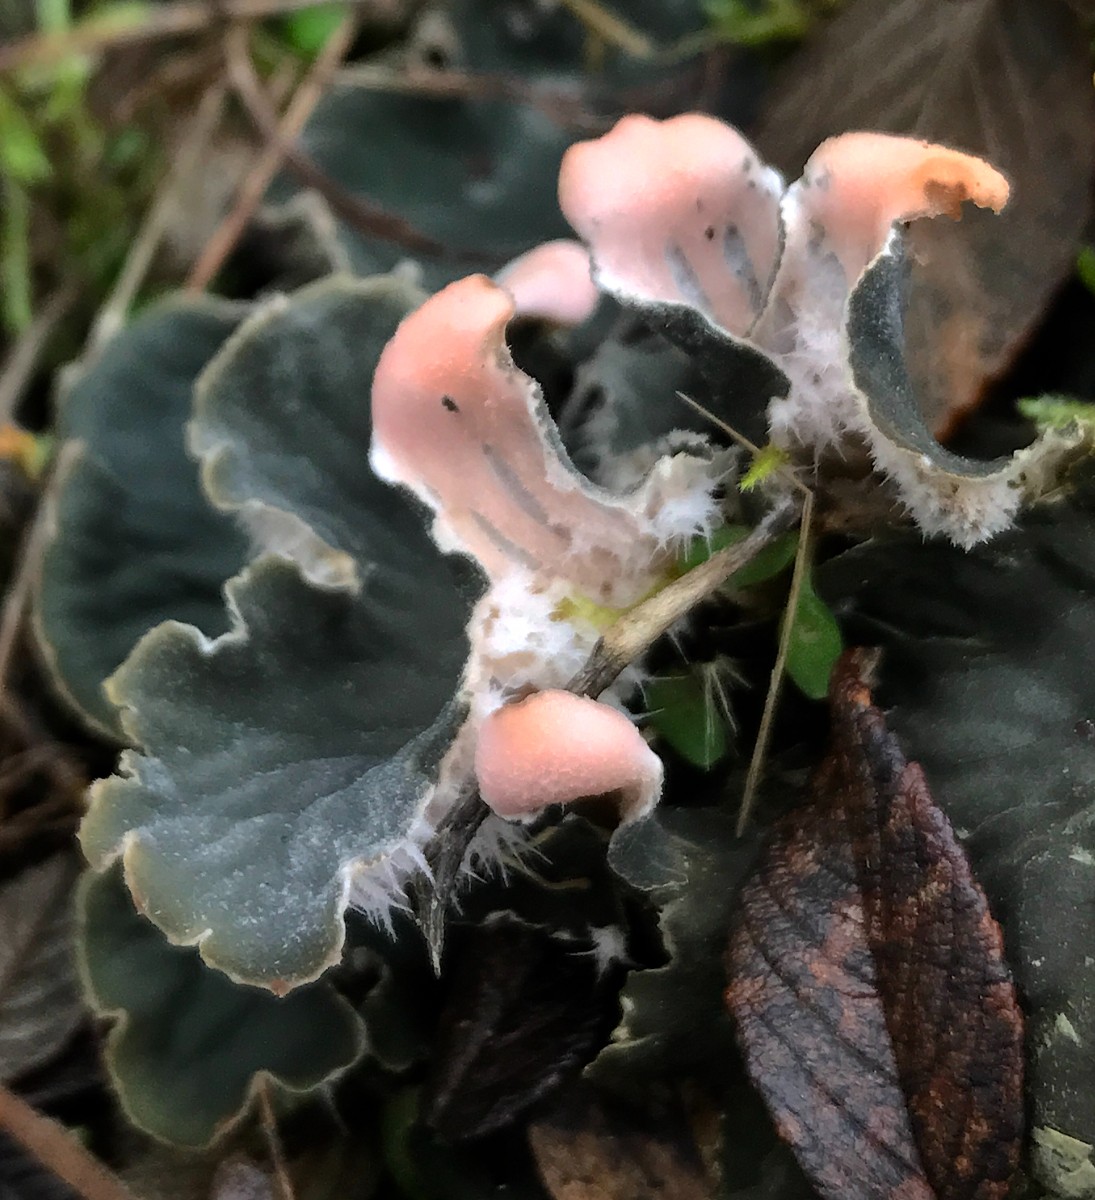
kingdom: Fungi
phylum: Ascomycota
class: Lecanoromycetes
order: Peltigerales
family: Peltigeraceae
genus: Peltigera
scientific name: Peltigera membranacea
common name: tynd skjoldlav
